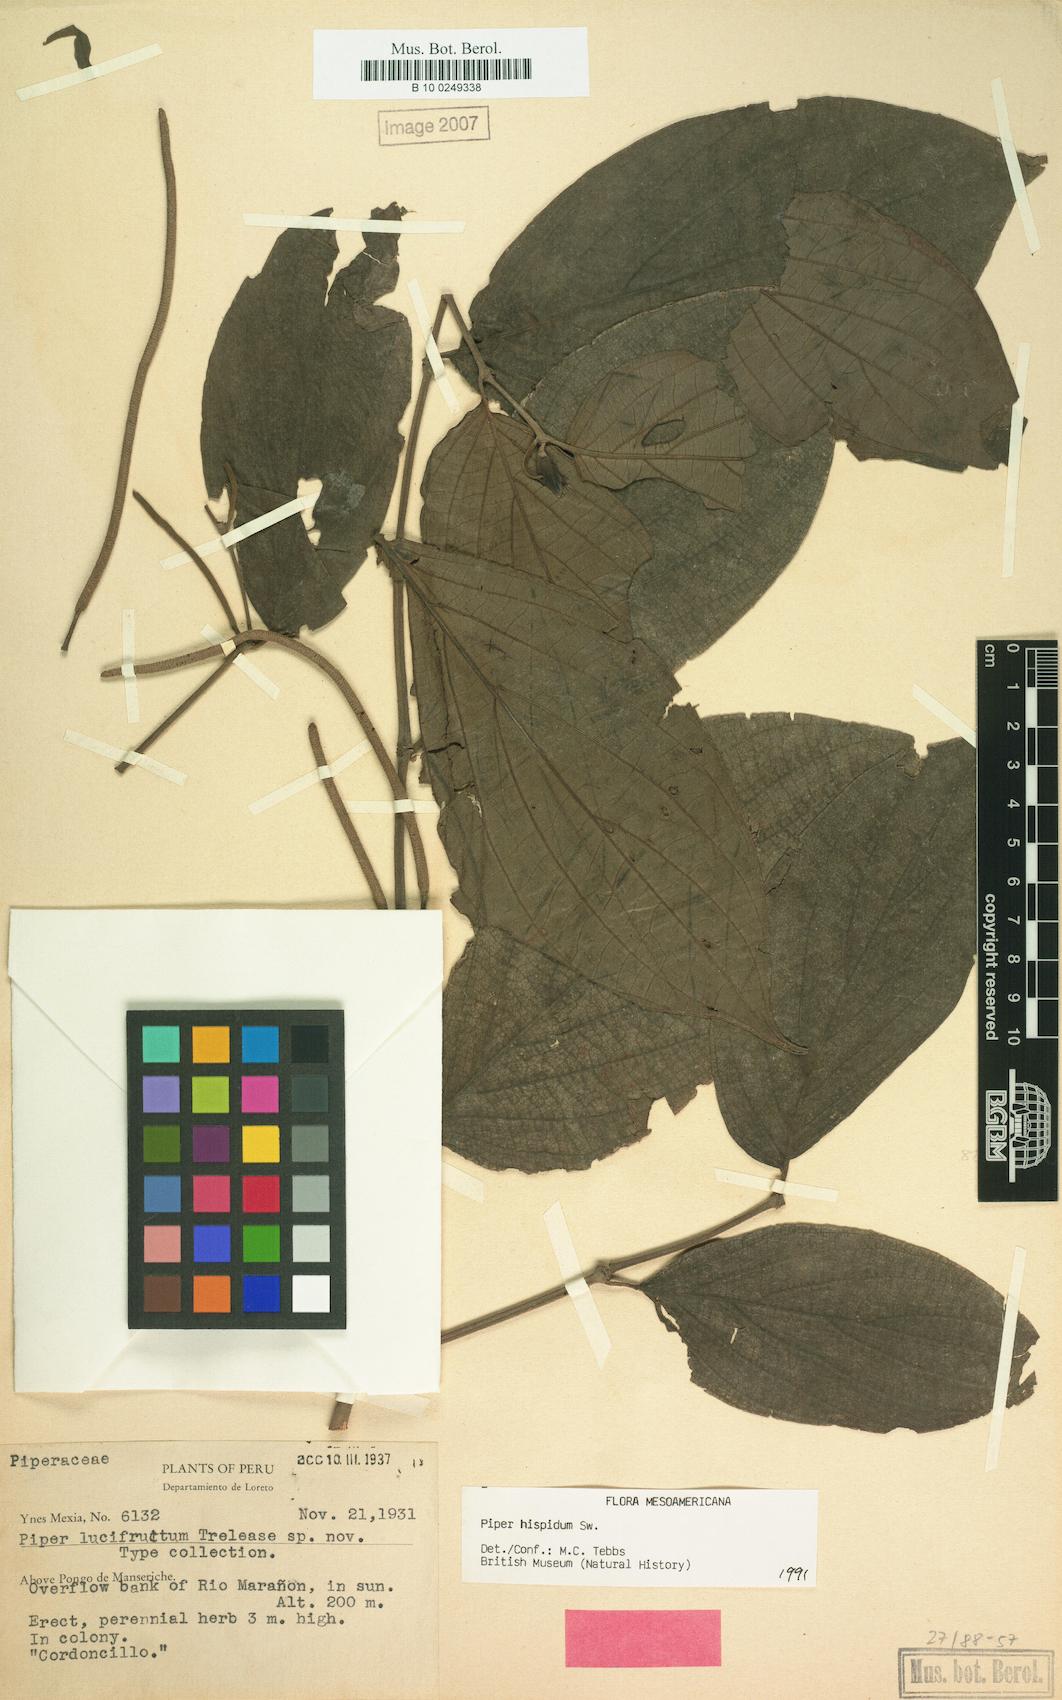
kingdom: Plantae
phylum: Tracheophyta
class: Magnoliopsida
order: Piperales
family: Piperaceae
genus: Piper
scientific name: Piper hispidum
